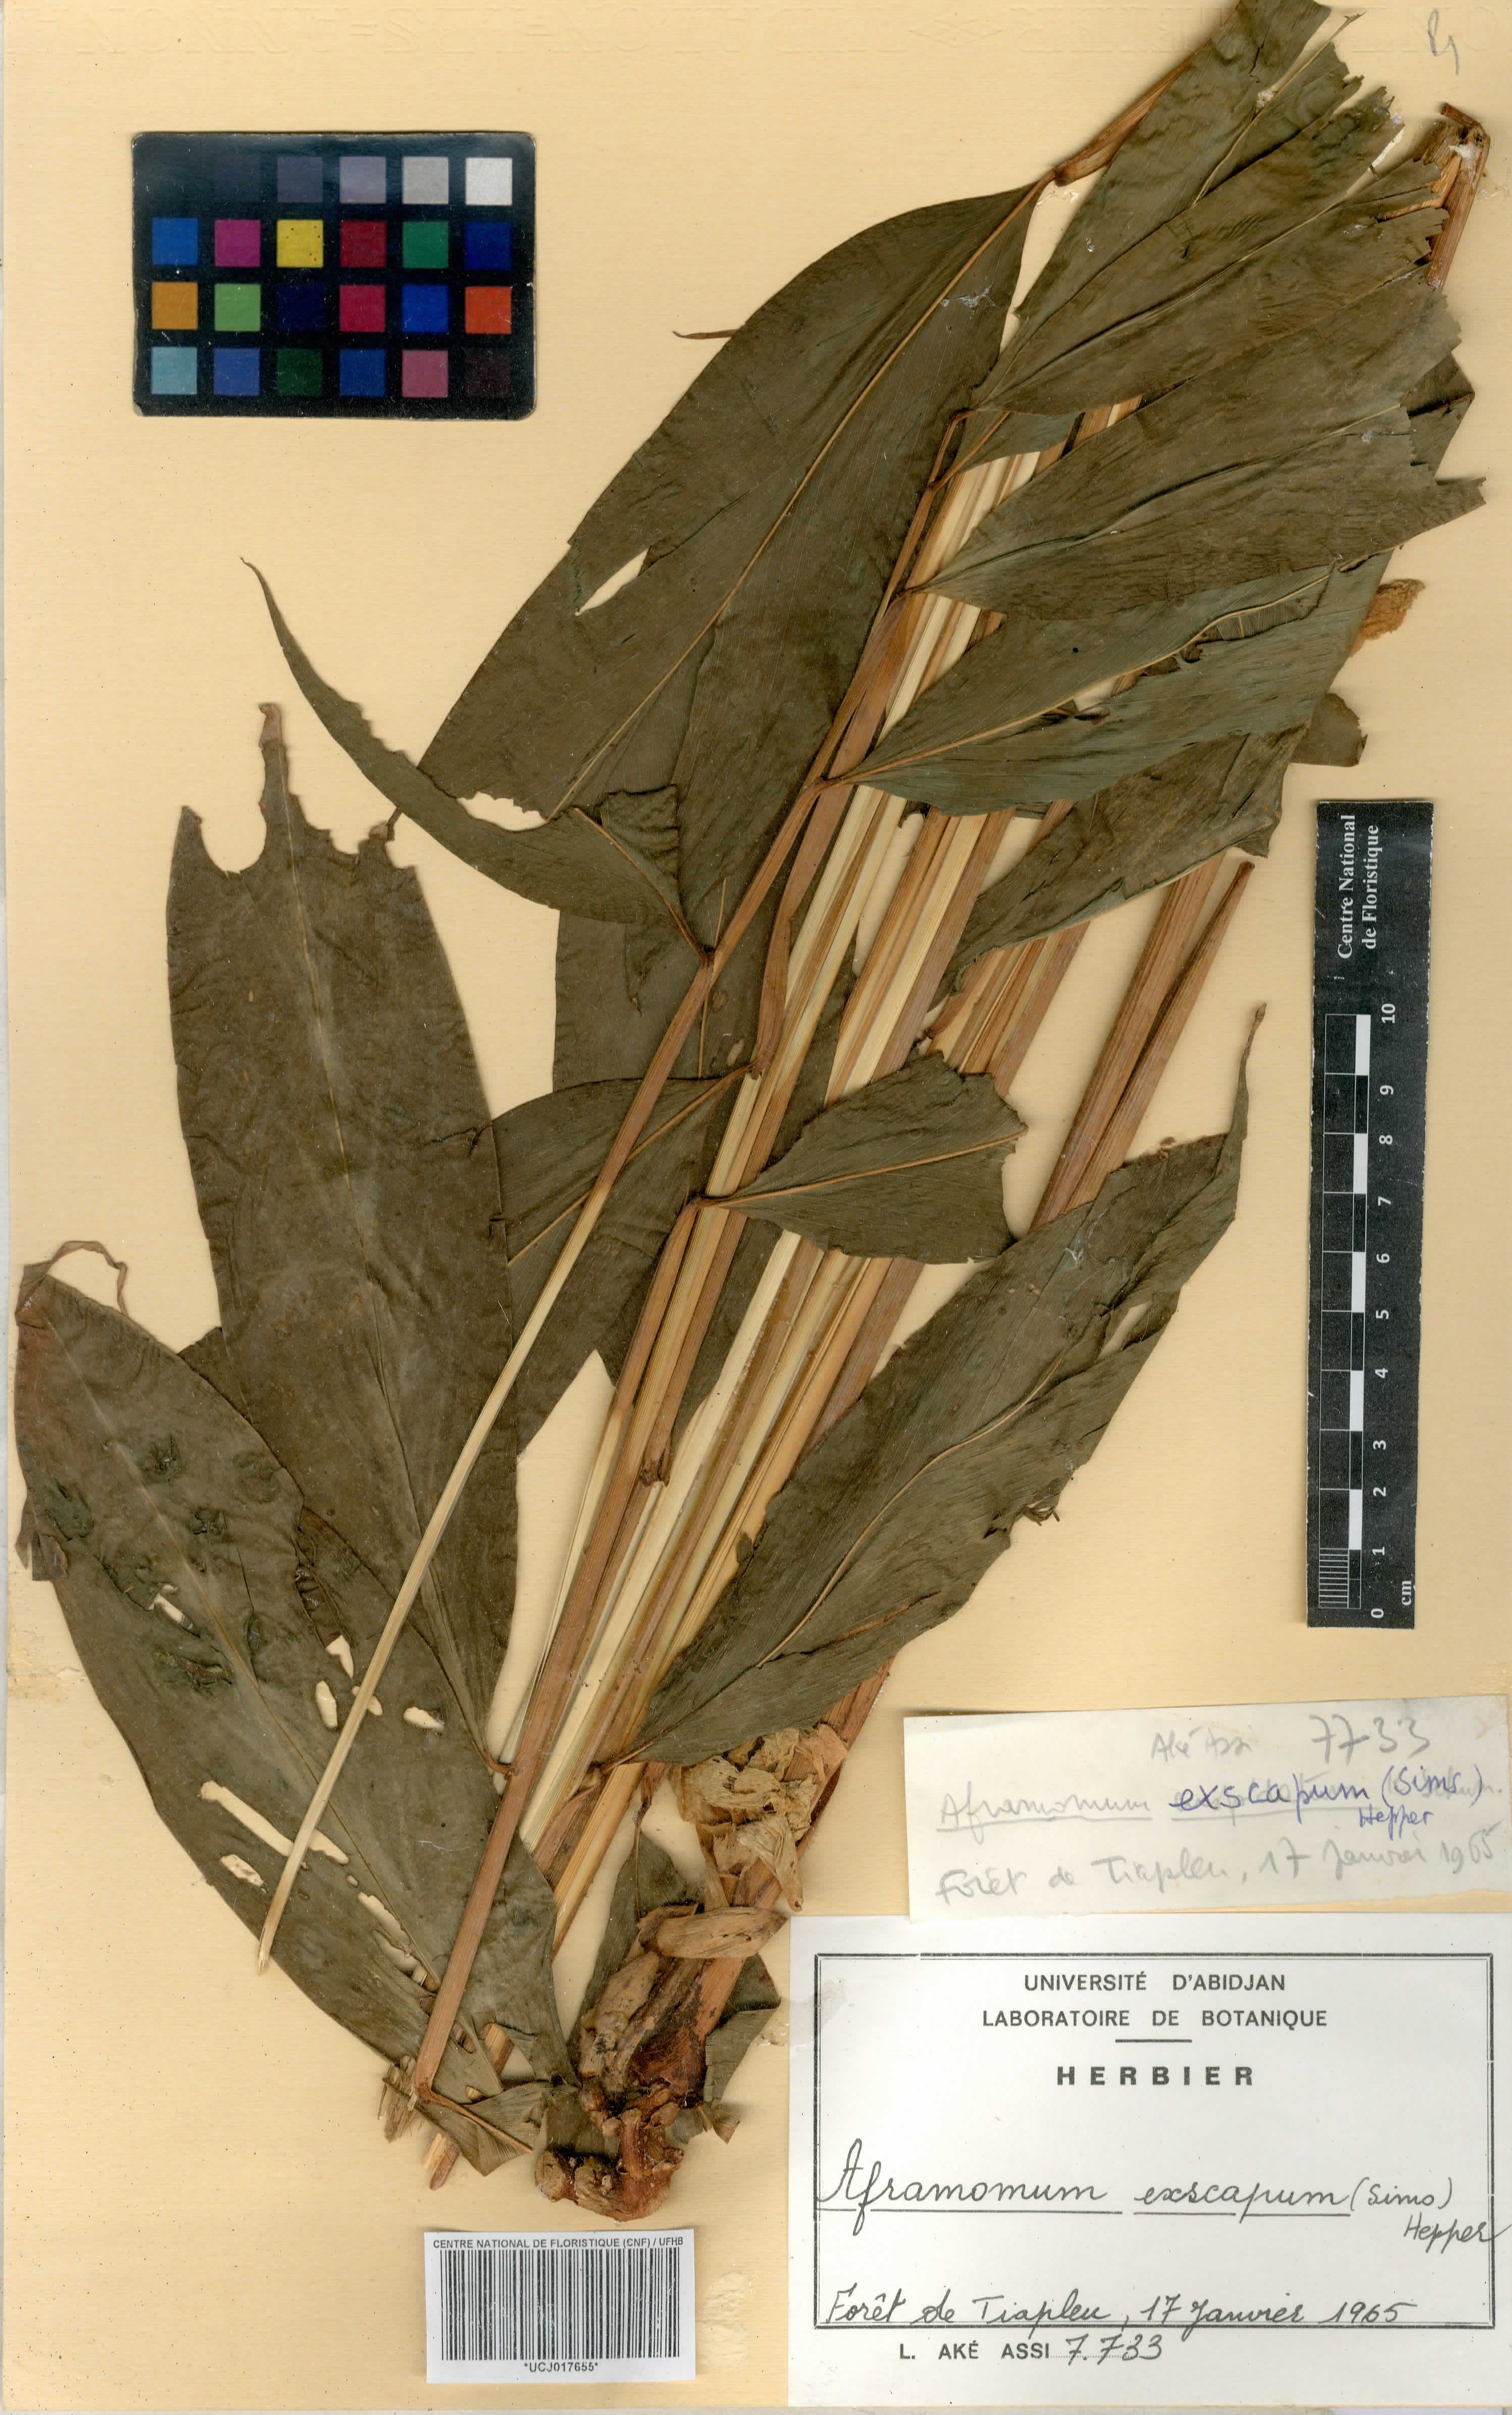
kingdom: Plantae
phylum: Tracheophyta
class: Liliopsida
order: Zingiberales
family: Zingiberaceae
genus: Aframomum
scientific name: Aframomum exscapum
